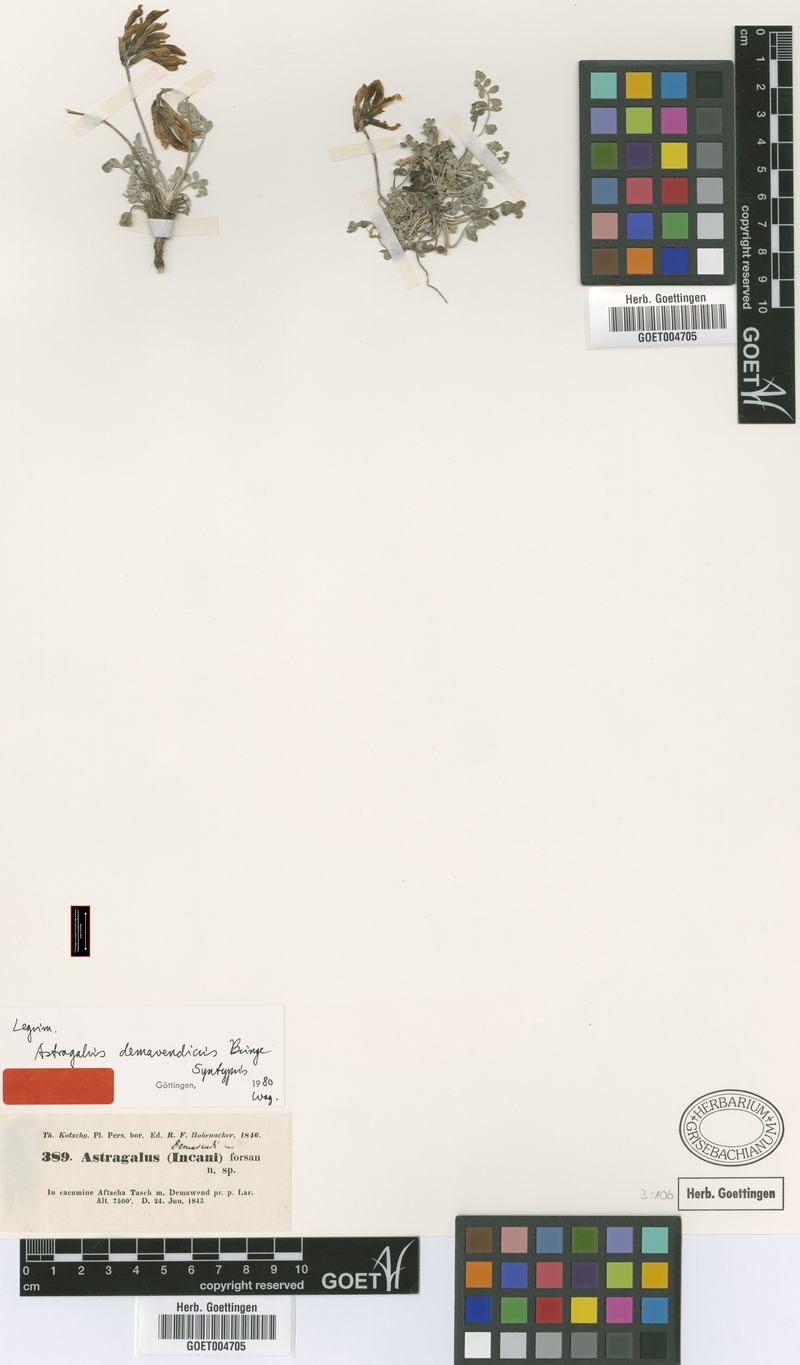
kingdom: Plantae
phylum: Tracheophyta
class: Magnoliopsida
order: Fabales
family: Fabaceae
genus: Astragalus
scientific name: Astragalus demavendicus
